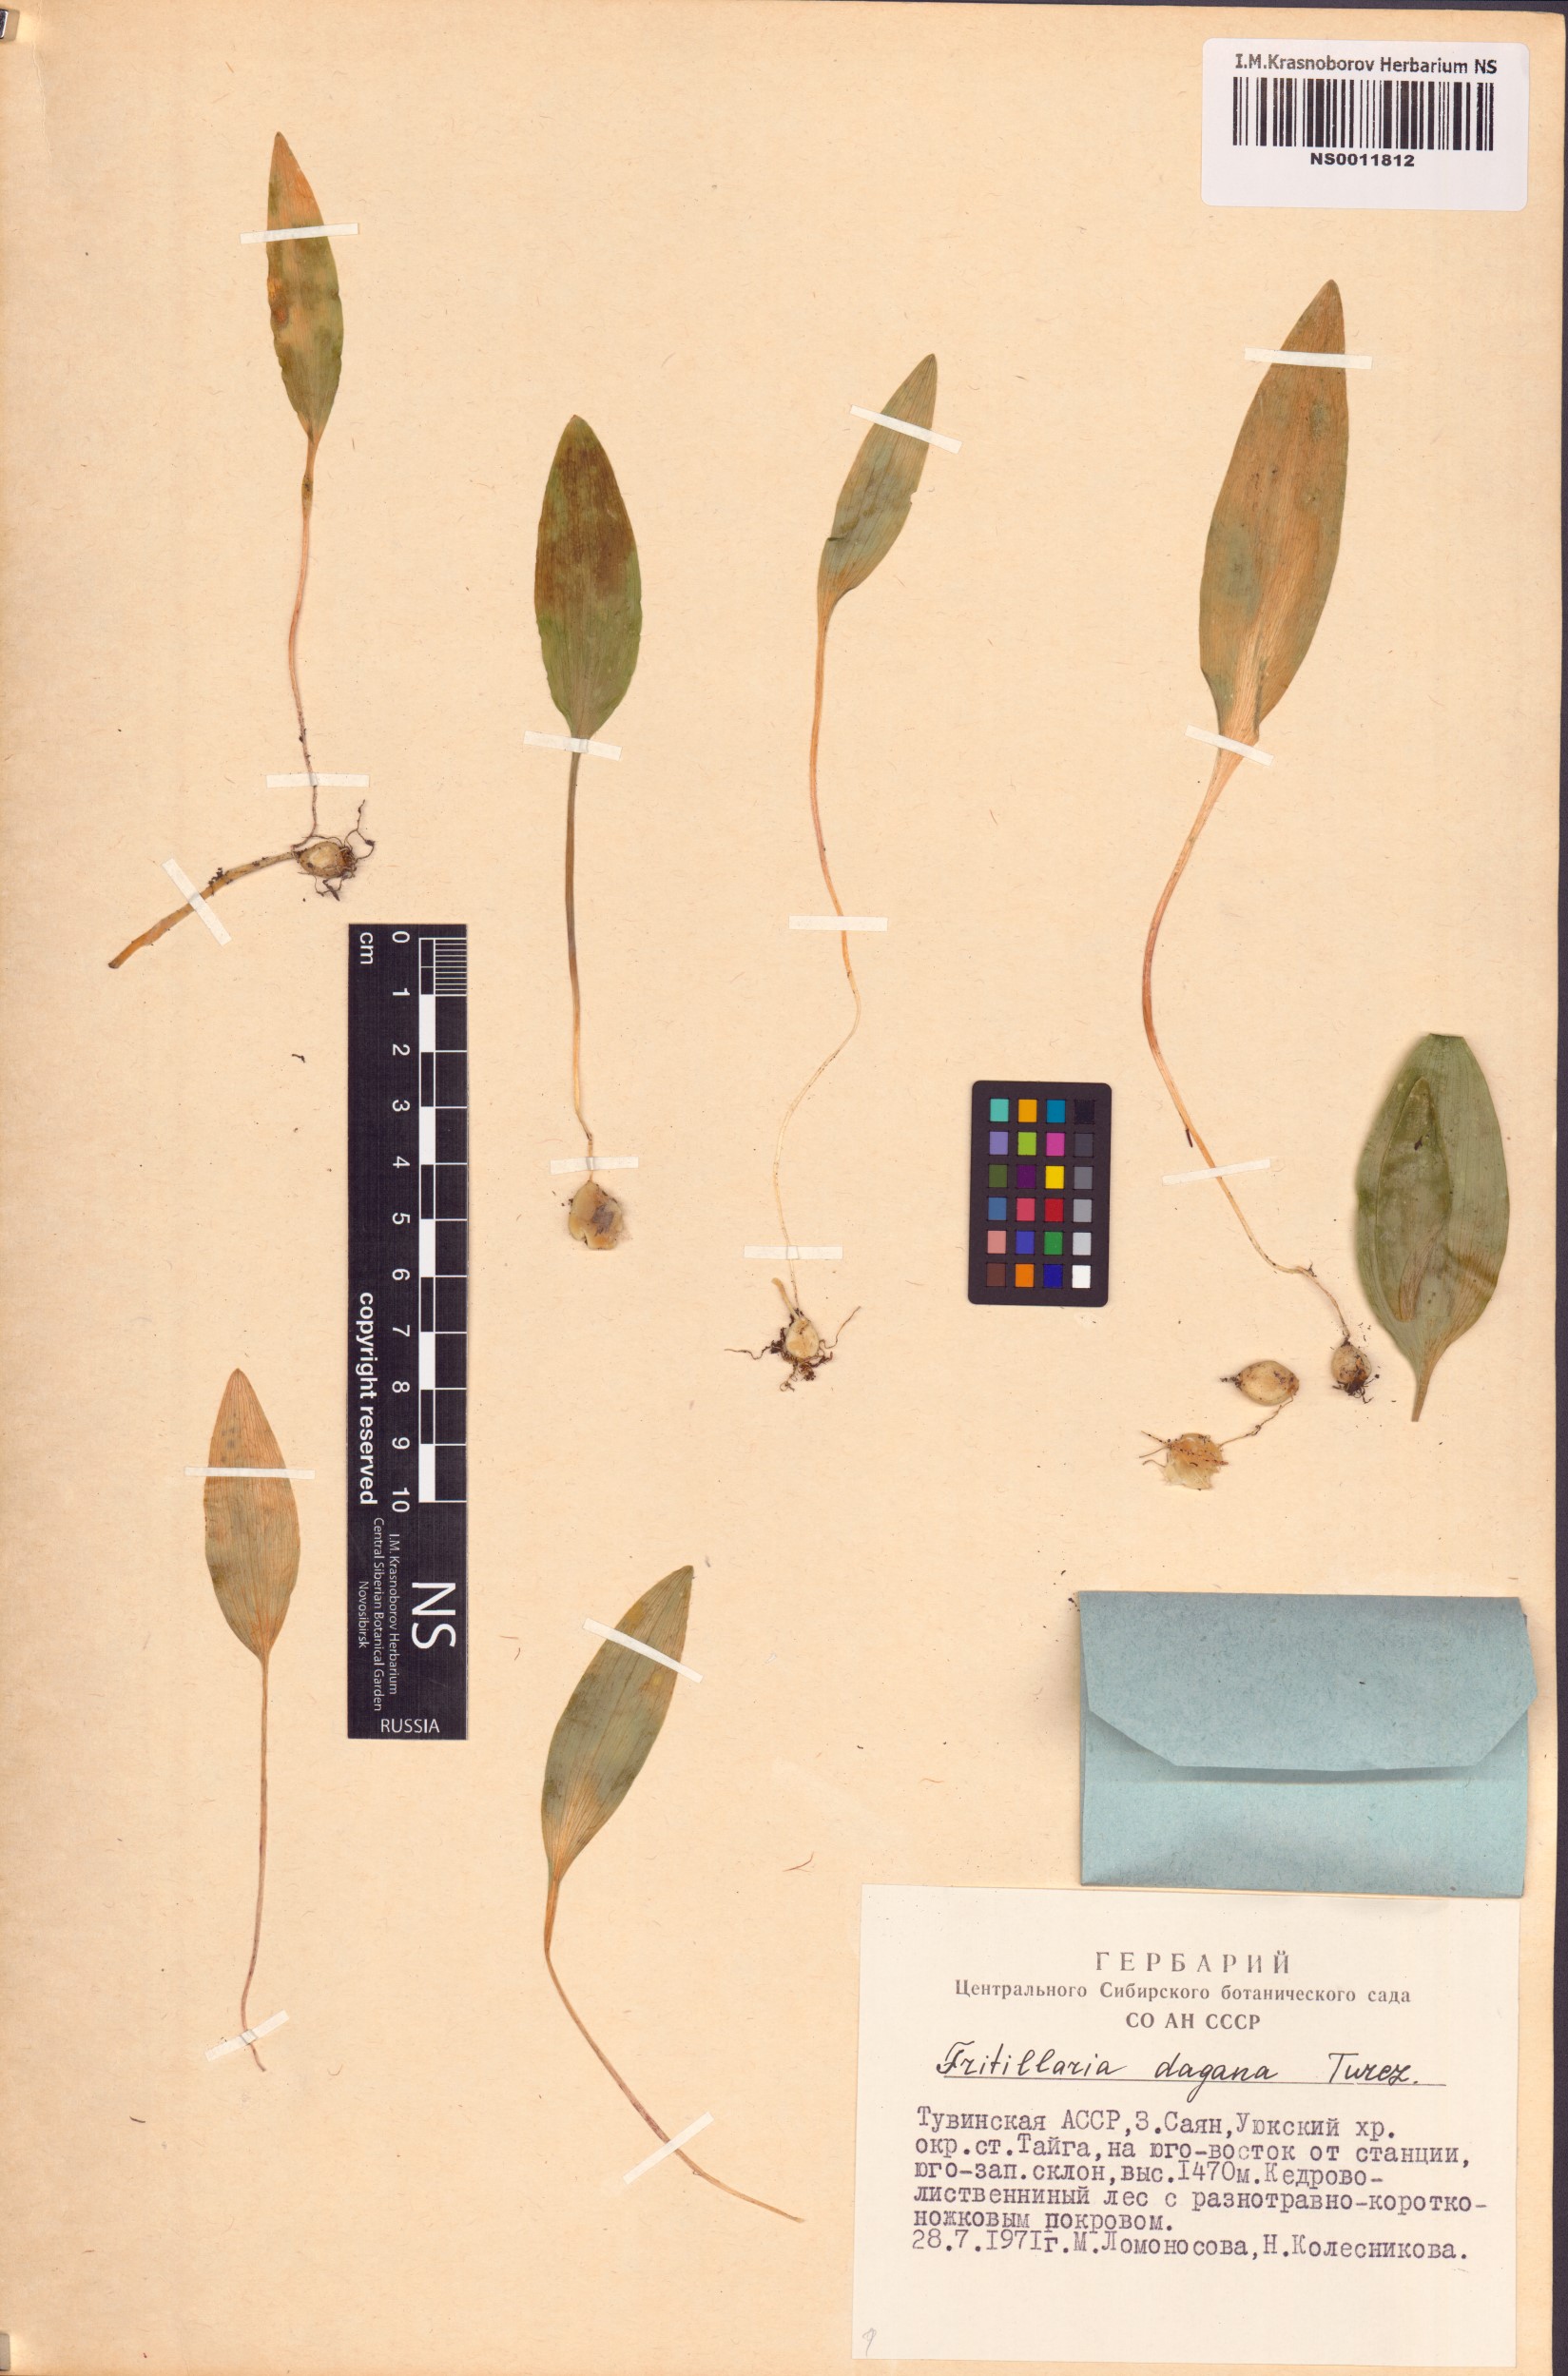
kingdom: Plantae
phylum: Tracheophyta
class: Liliopsida
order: Liliales
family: Liliaceae
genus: Fritillaria
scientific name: Fritillaria dagana
